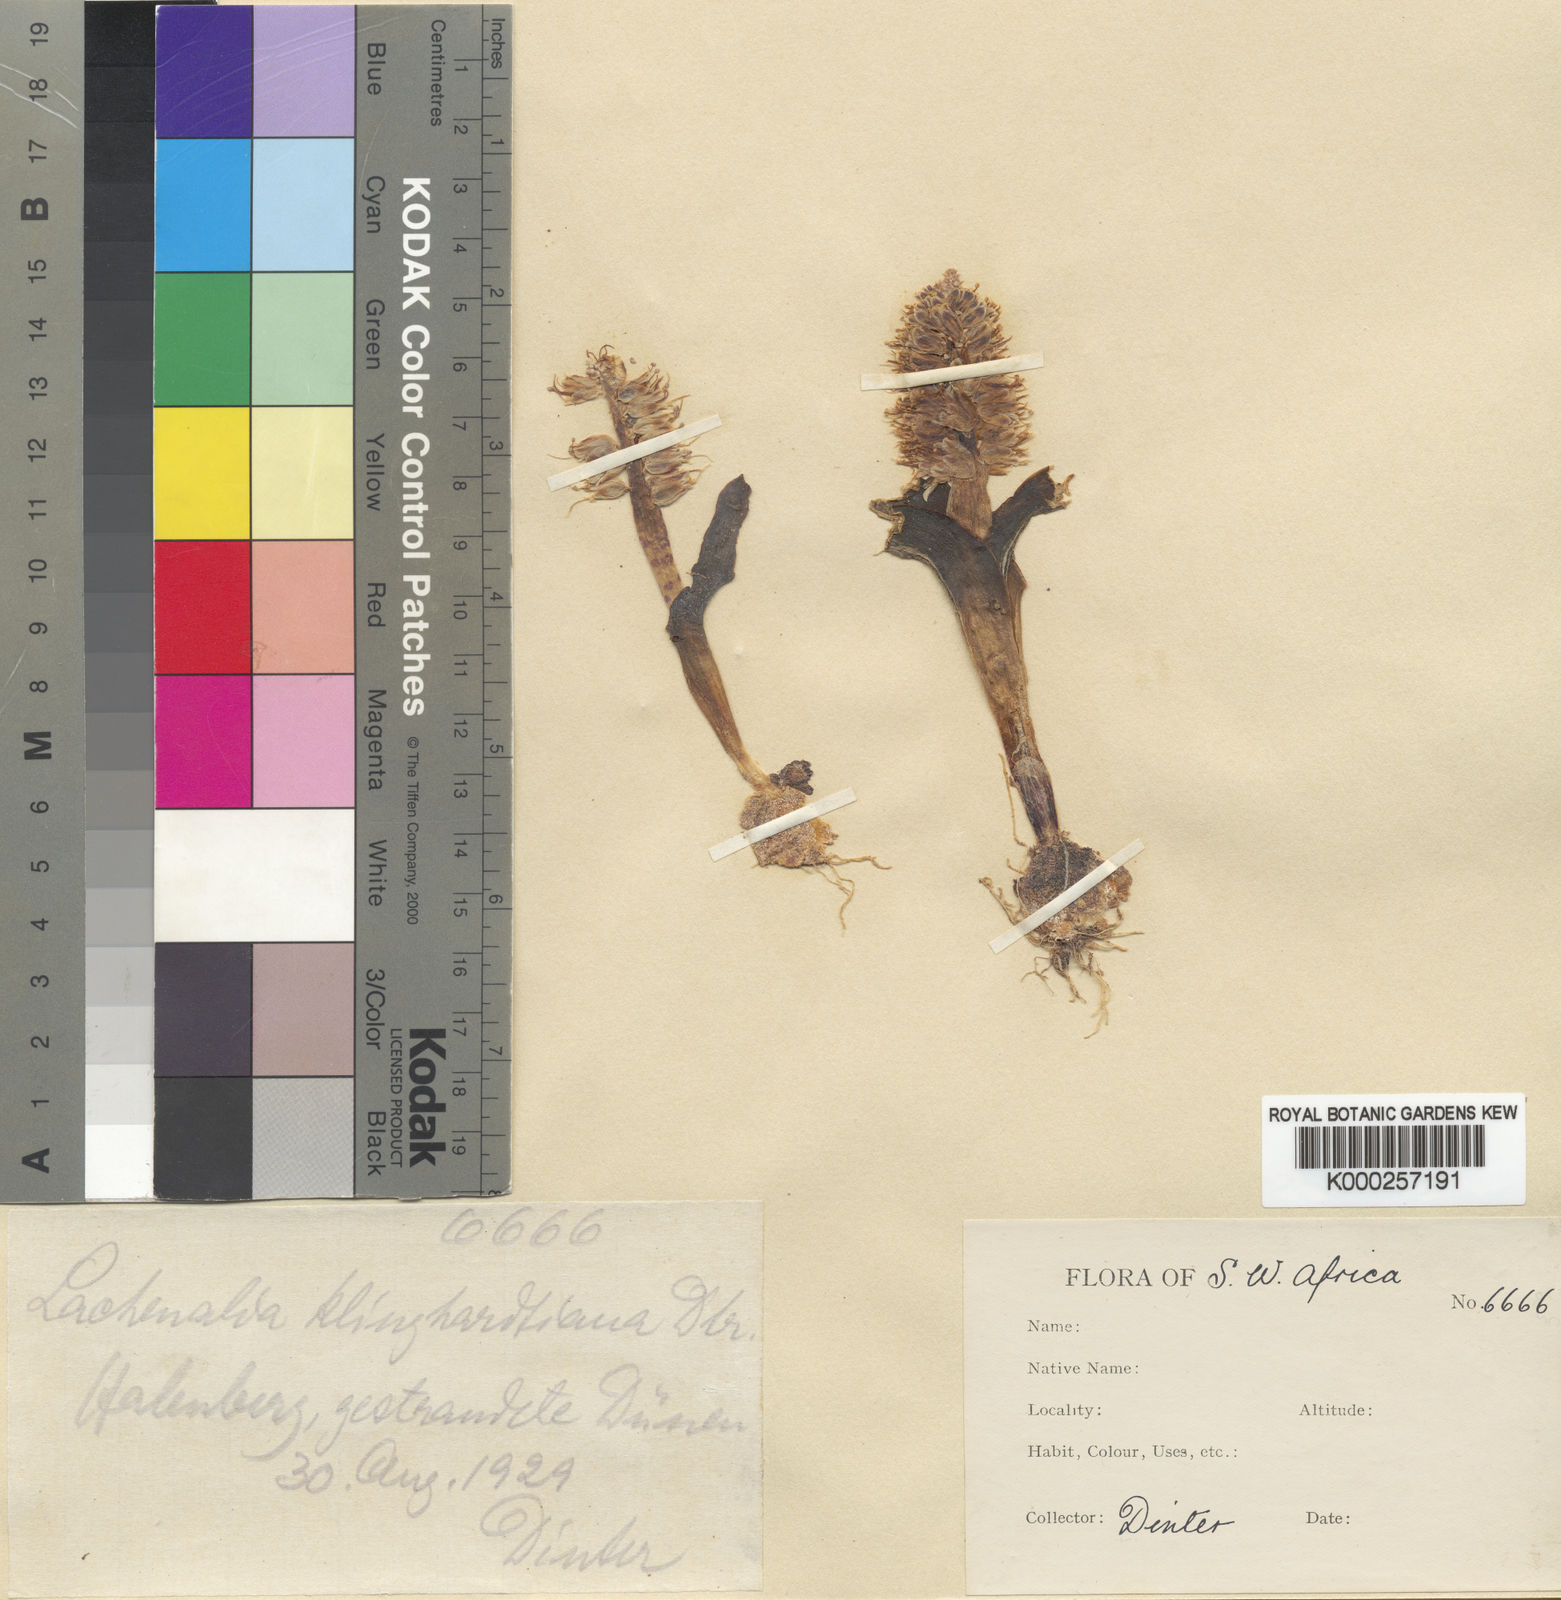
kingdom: Plantae
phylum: Tracheophyta
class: Liliopsida
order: Asparagales
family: Asparagaceae
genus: Lachenalia
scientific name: Lachenalia klinghardtiana
